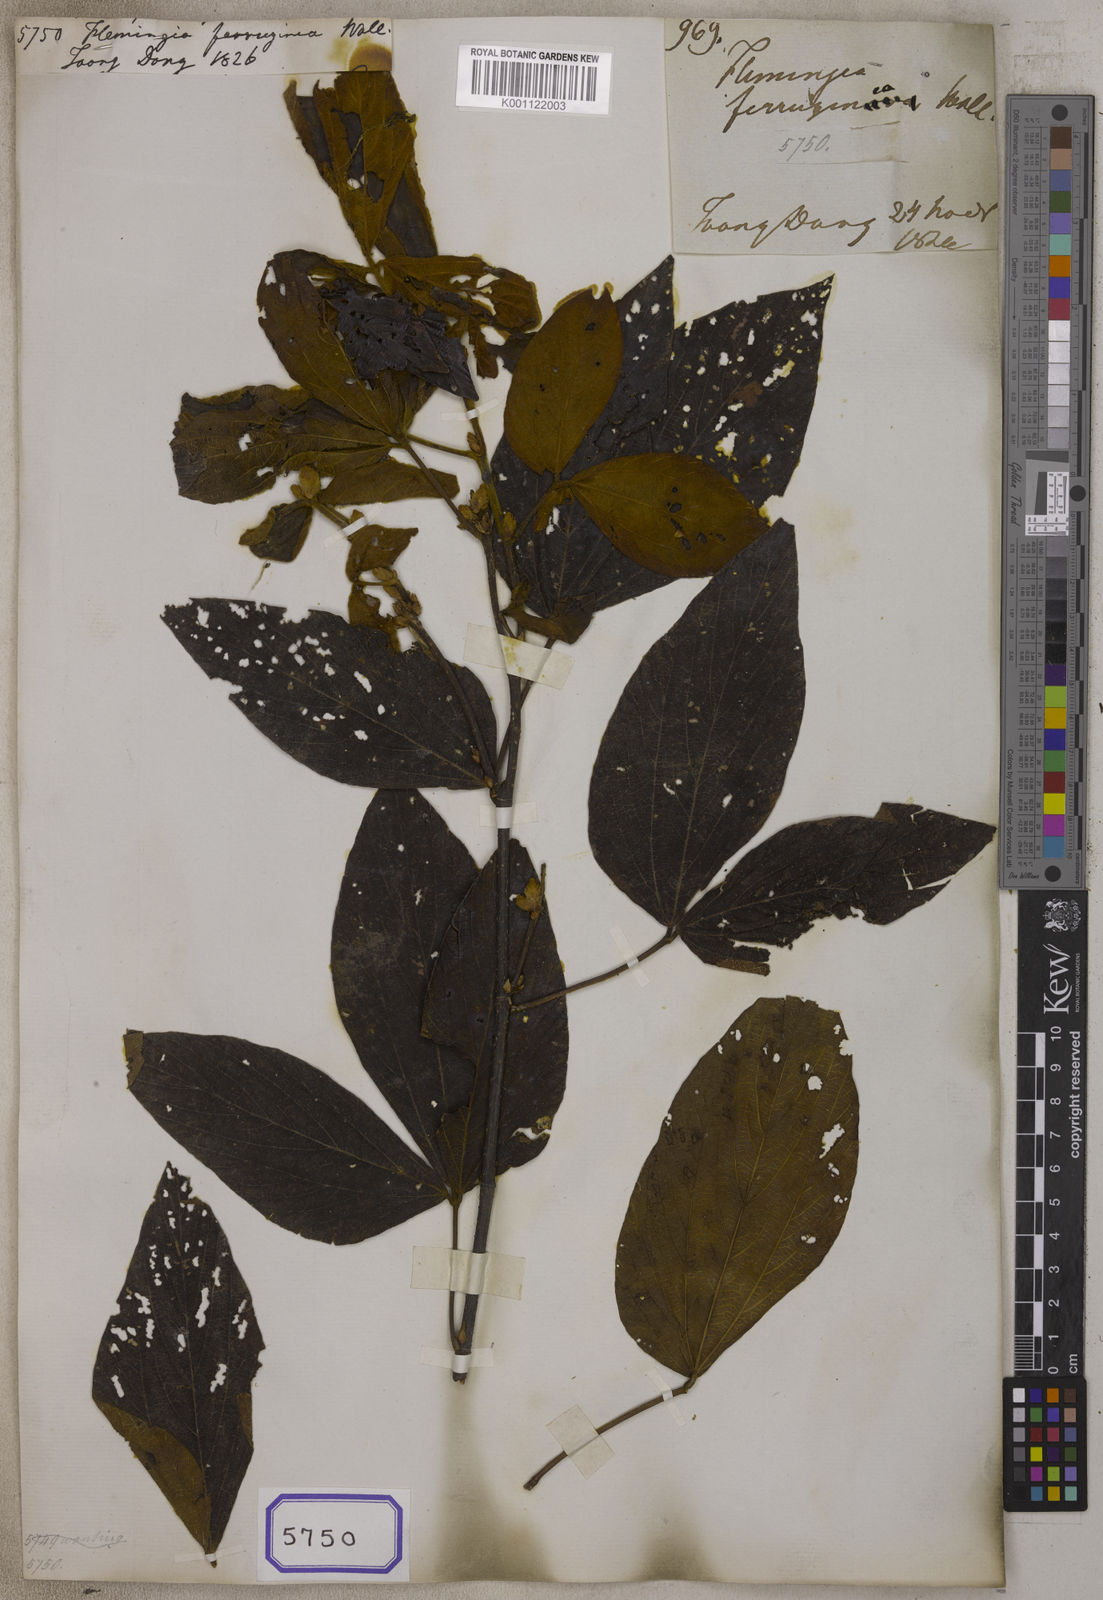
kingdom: Plantae
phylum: Tracheophyta
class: Magnoliopsida
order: Fabales
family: Fabaceae
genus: Flemingia
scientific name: Flemingia
